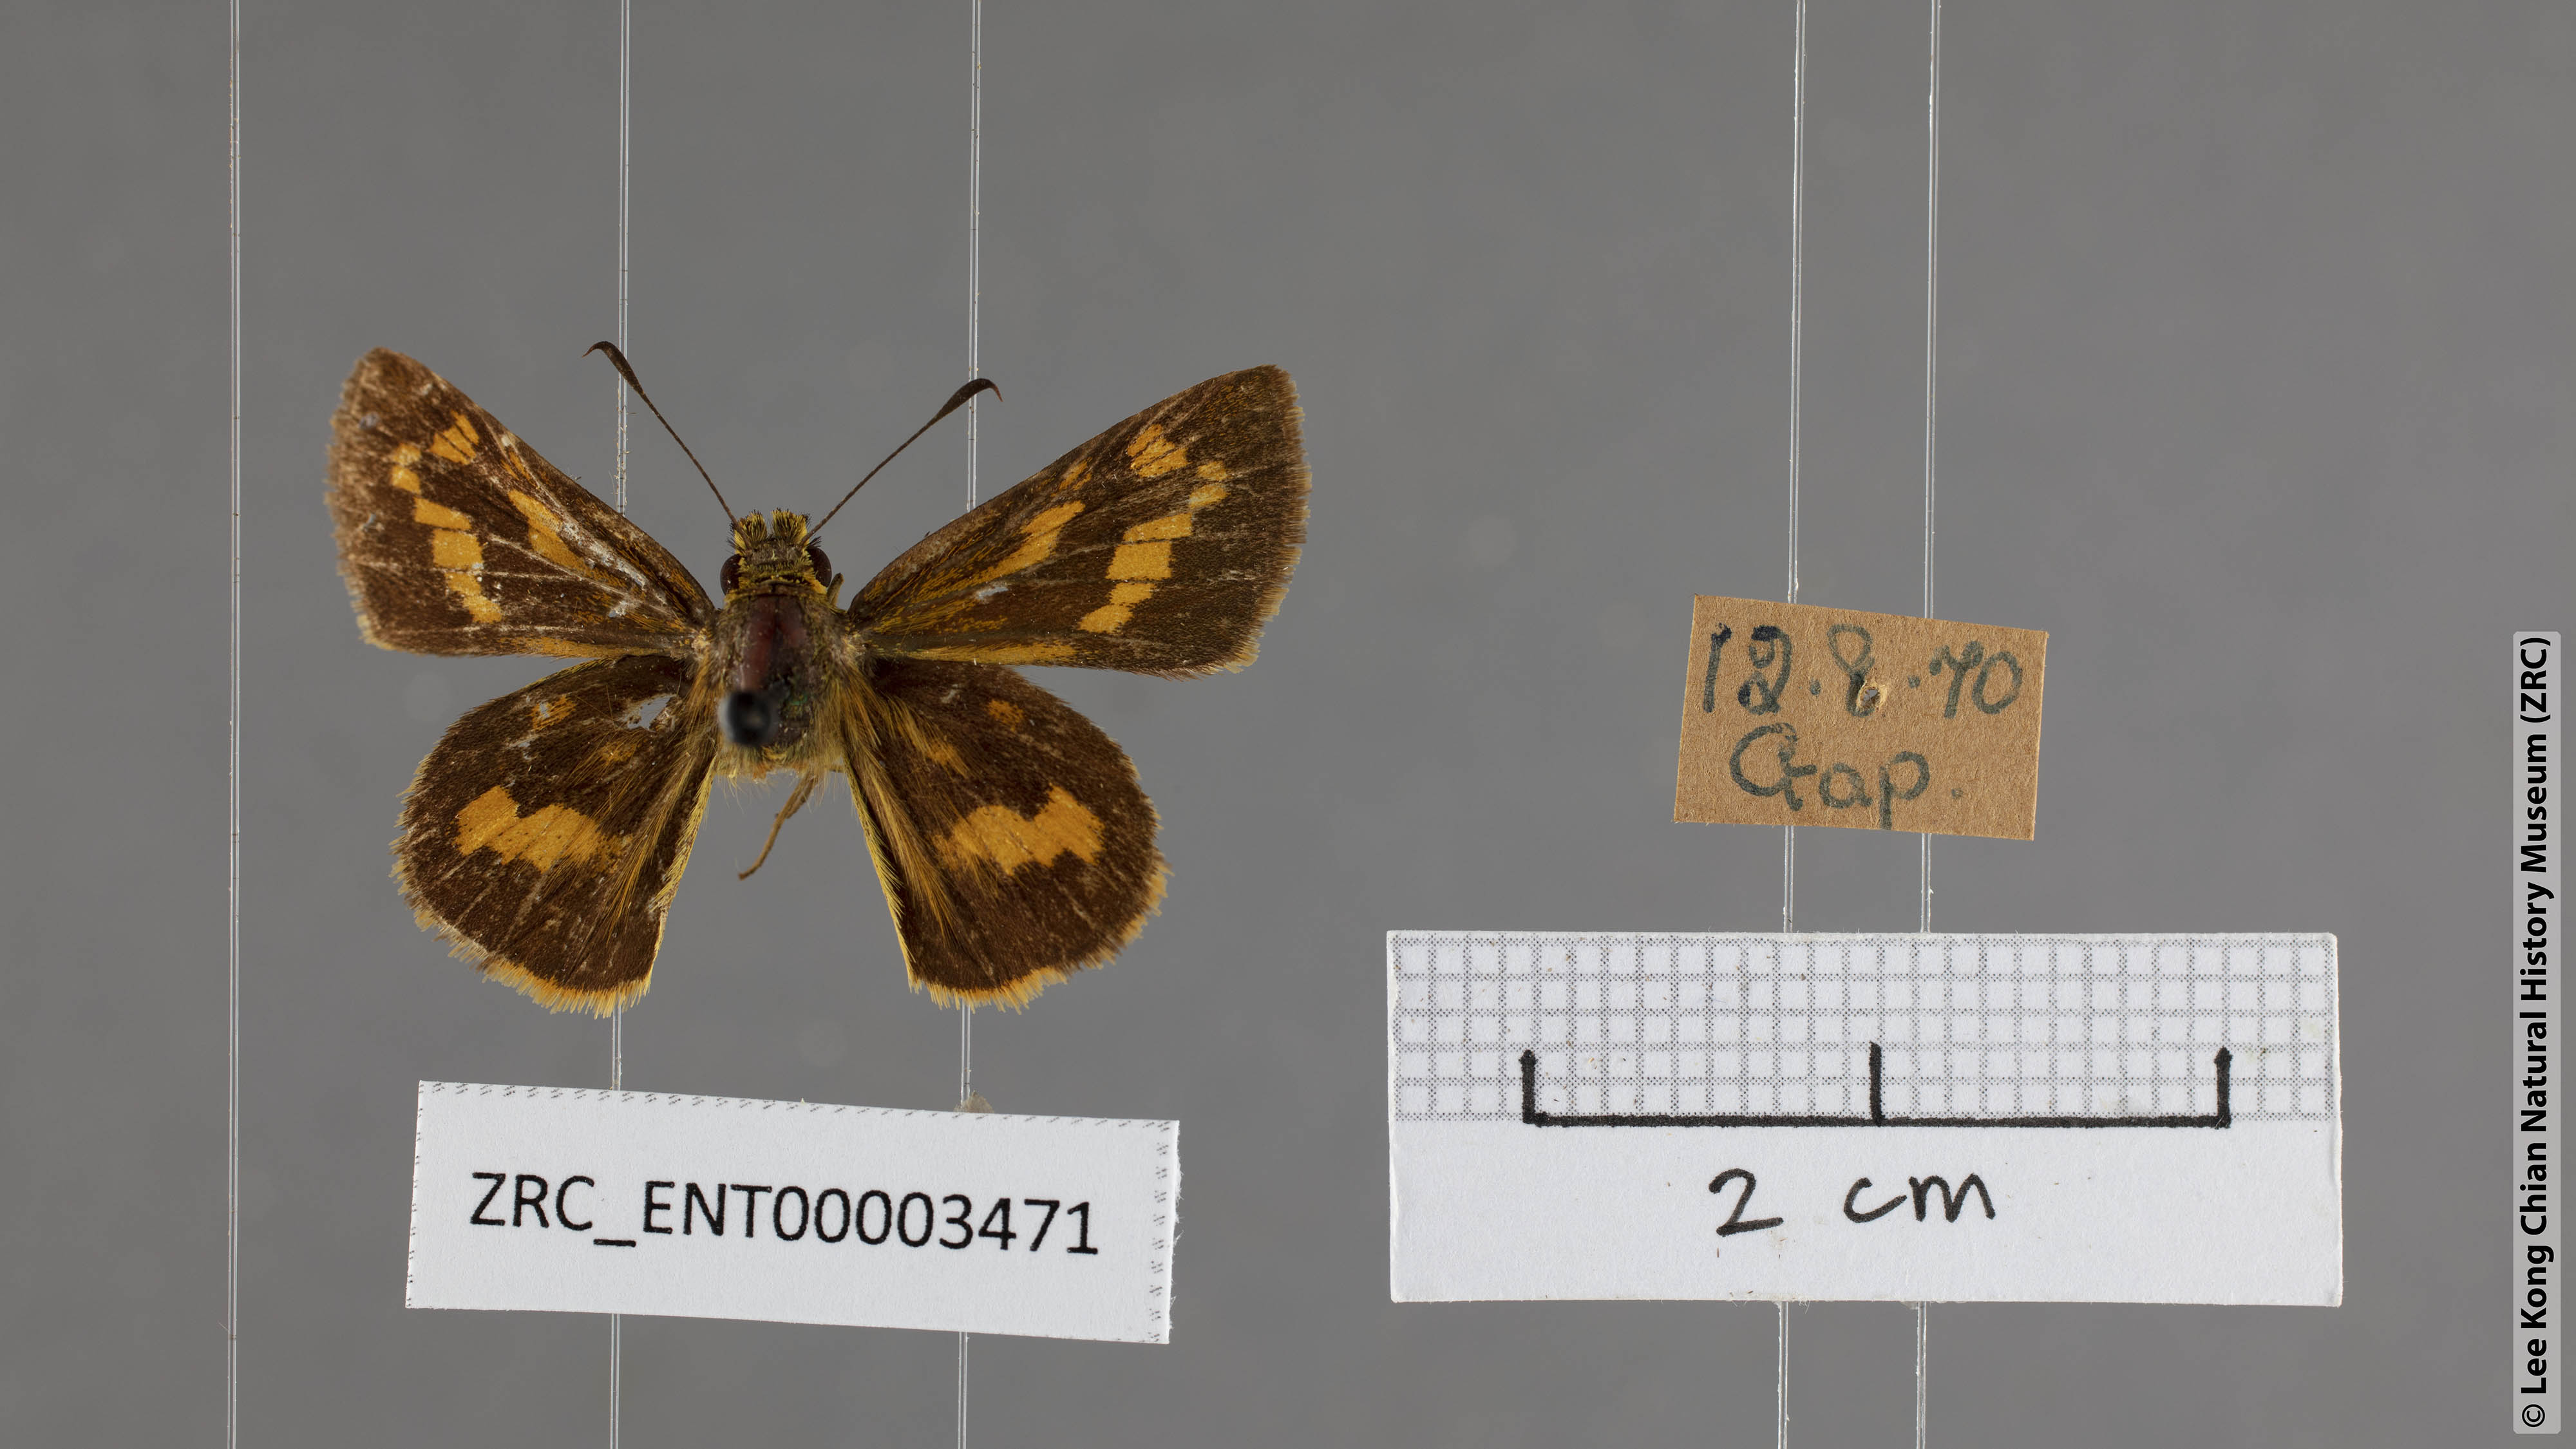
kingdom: Animalia
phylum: Arthropoda
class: Insecta
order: Lepidoptera
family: Hesperiidae
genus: Potanthus
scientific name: Potanthus lydia
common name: Lydia dart
